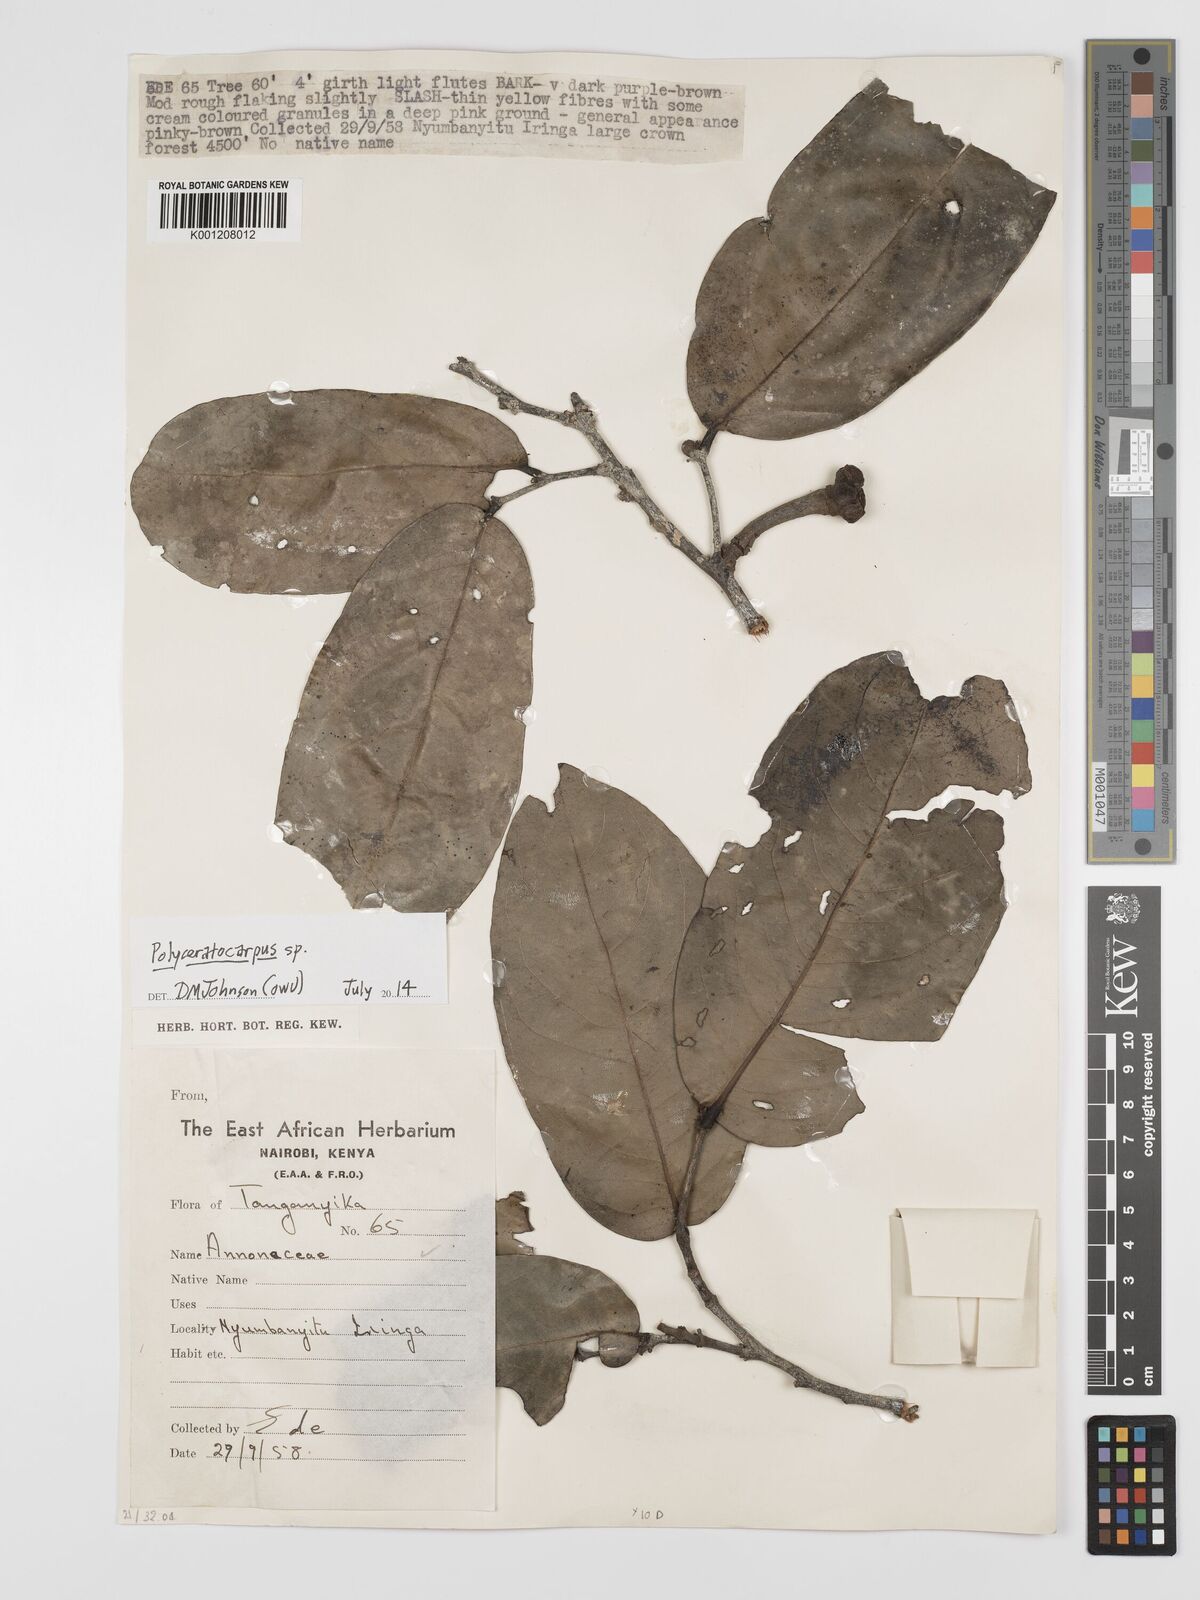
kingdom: Plantae
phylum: Tracheophyta
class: Magnoliopsida
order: Magnoliales
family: Annonaceae
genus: Polyceratocarpus
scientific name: Polyceratocarpus
